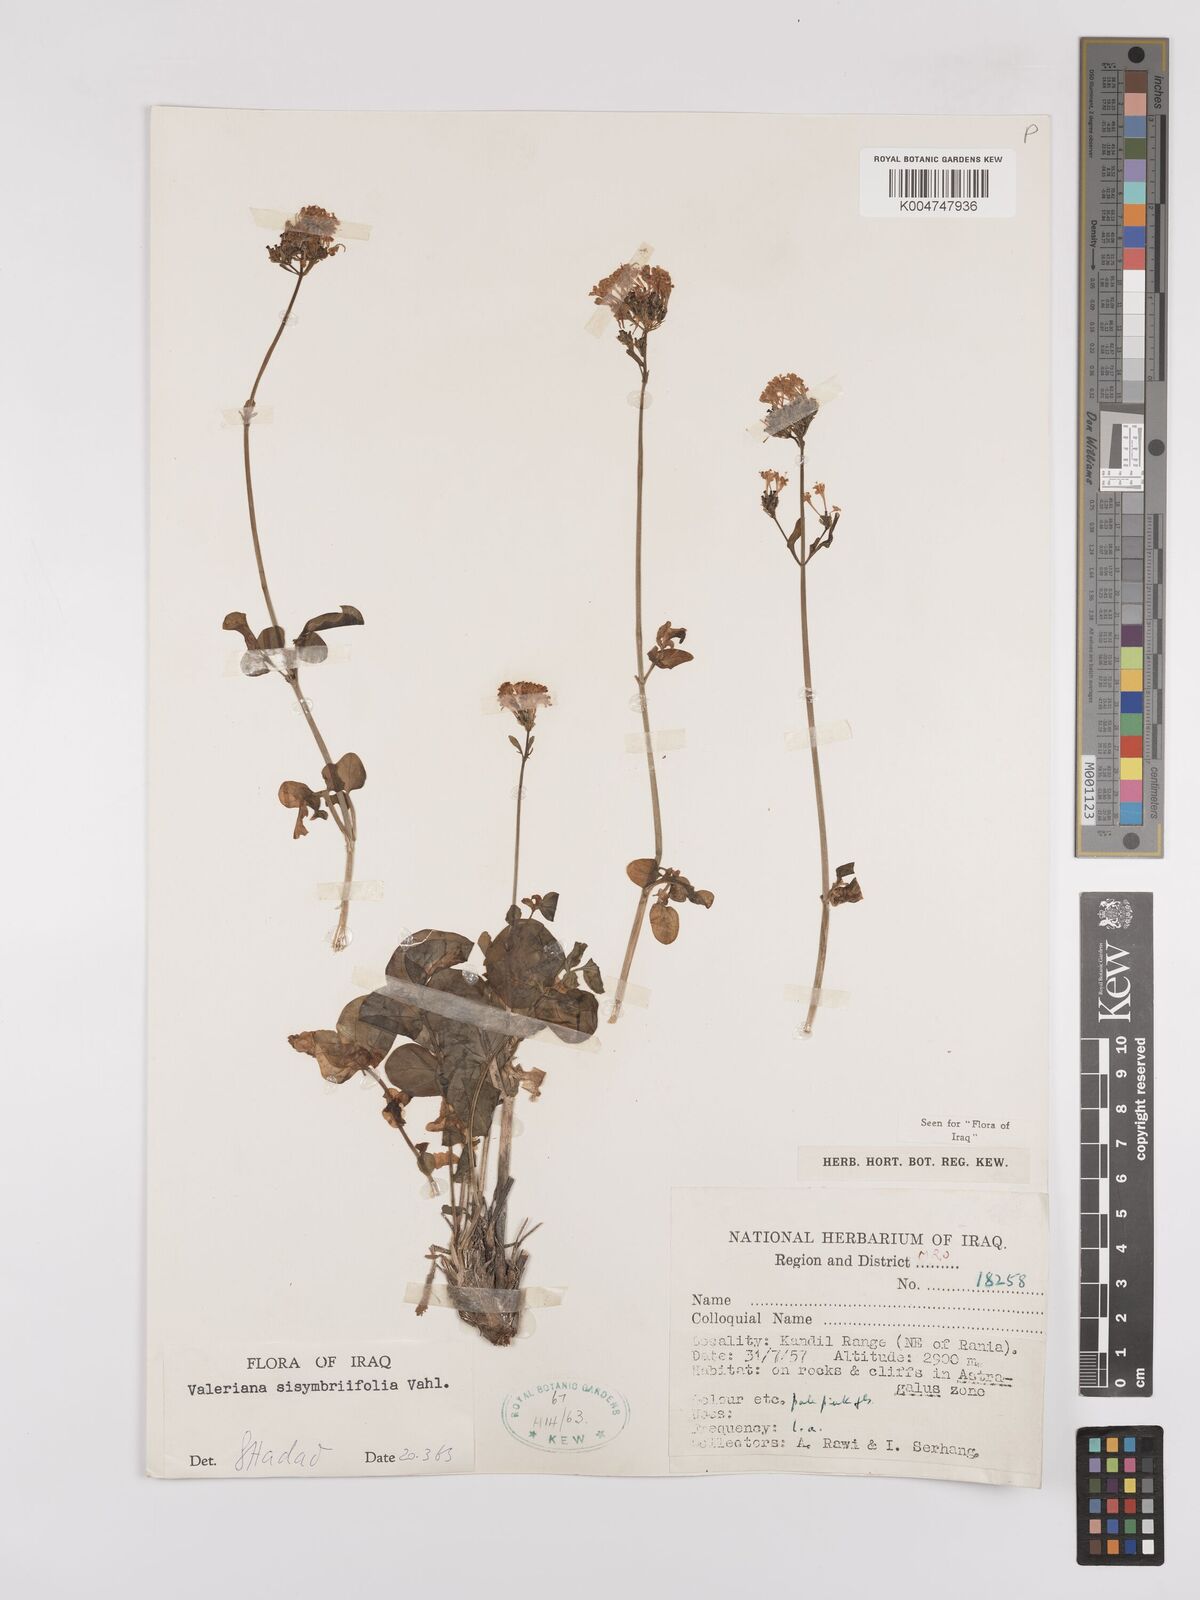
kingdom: Plantae
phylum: Tracheophyta
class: Magnoliopsida
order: Dipsacales
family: Caprifoliaceae
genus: Valeriana
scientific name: Valeriana
